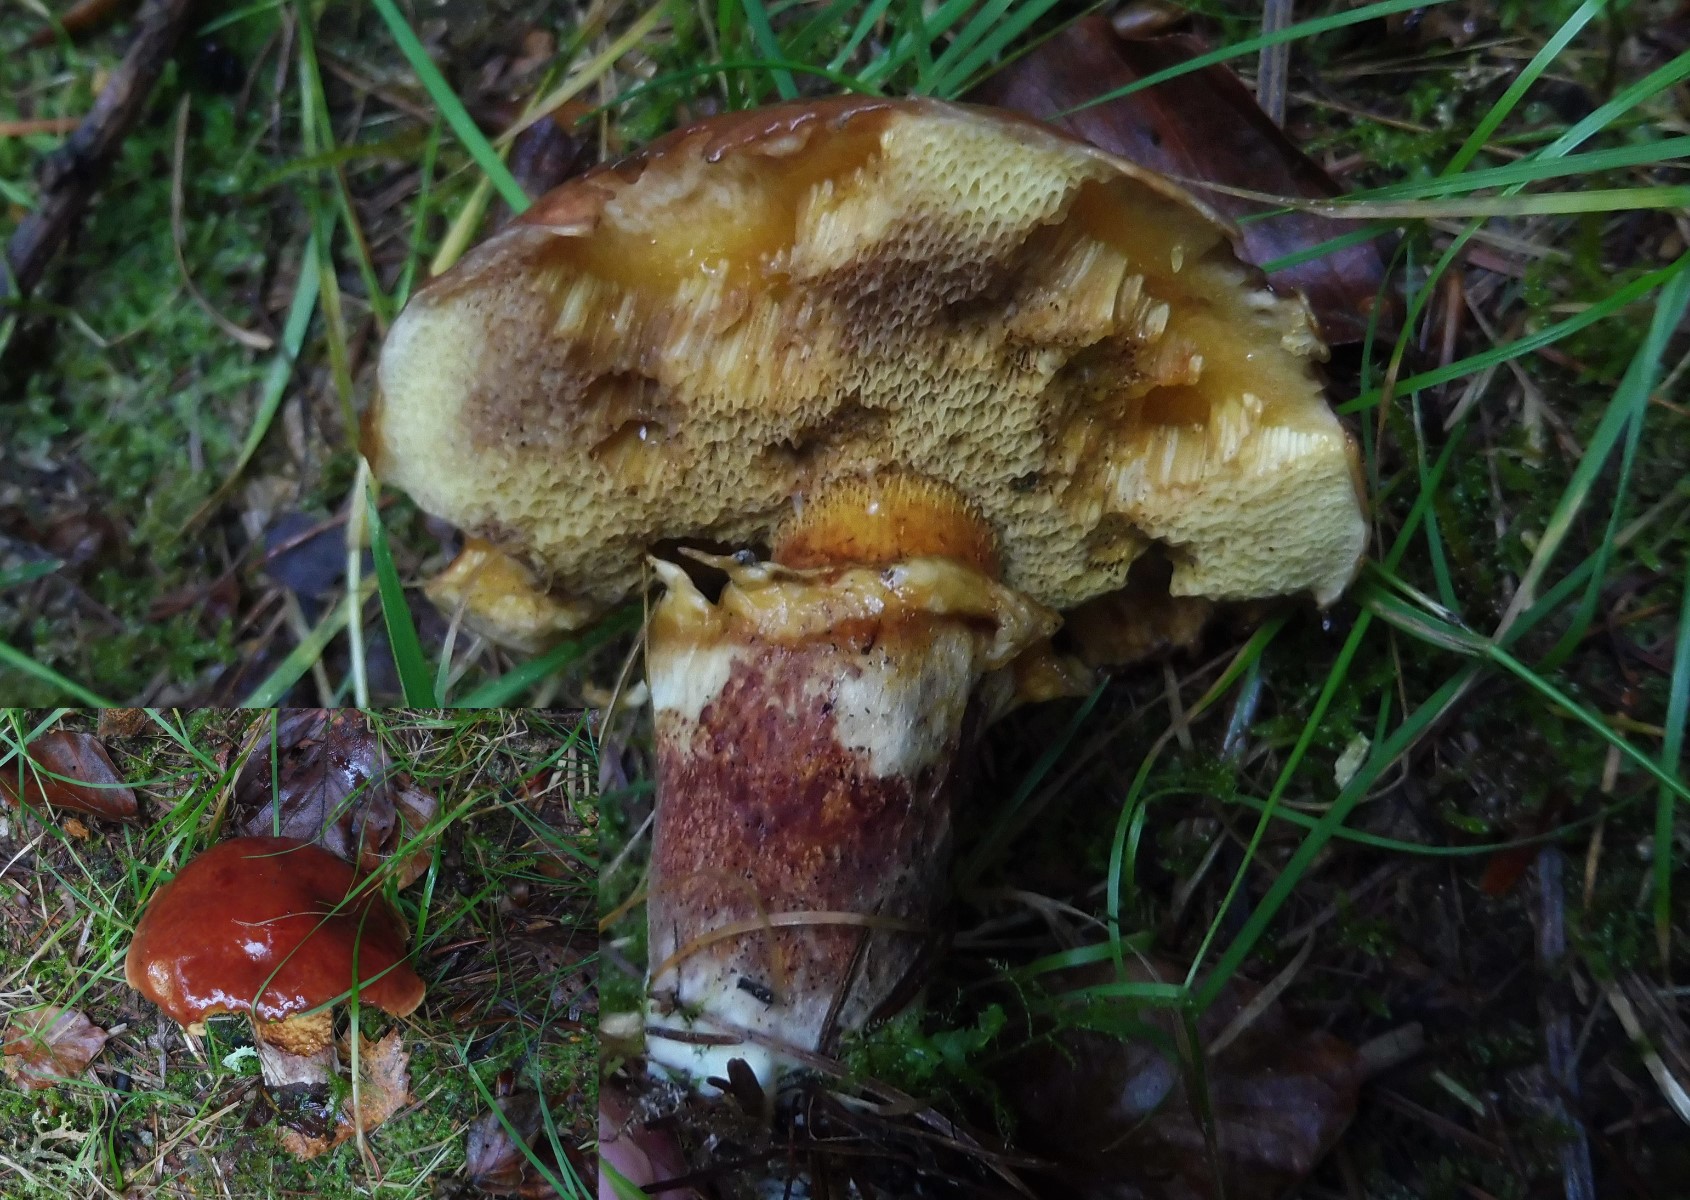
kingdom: Fungi
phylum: Basidiomycota
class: Agaricomycetes
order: Boletales
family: Suillaceae
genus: Suillus
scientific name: Suillus grevillei
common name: Larch bolete
